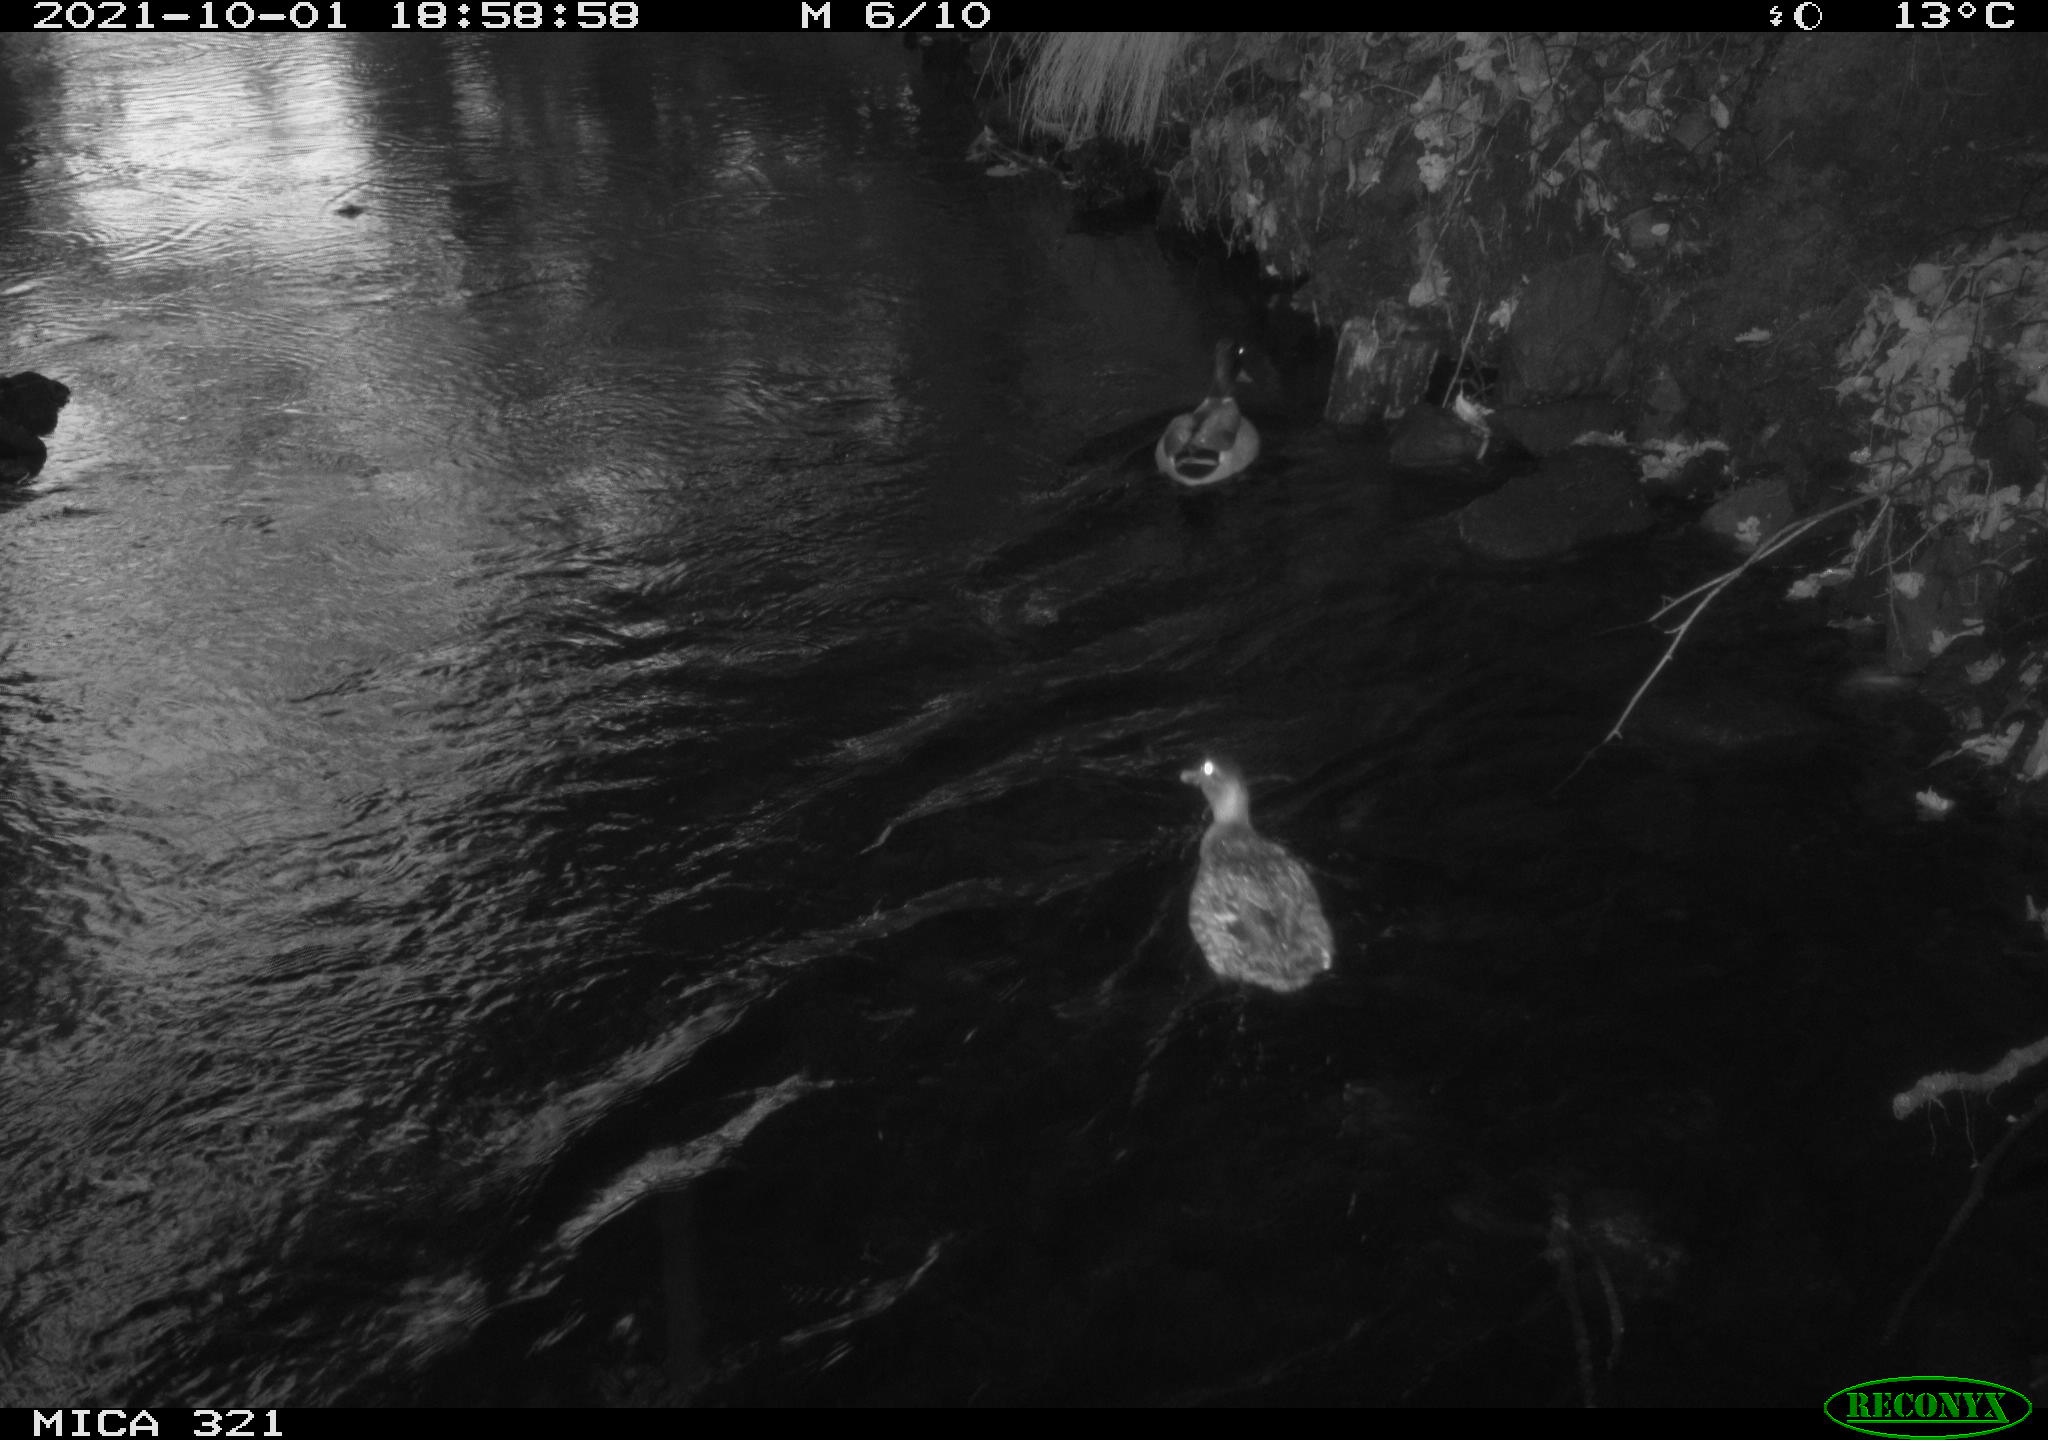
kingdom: Animalia
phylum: Chordata
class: Aves
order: Anseriformes
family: Anatidae
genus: Anas
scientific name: Anas platyrhynchos
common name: Mallard
